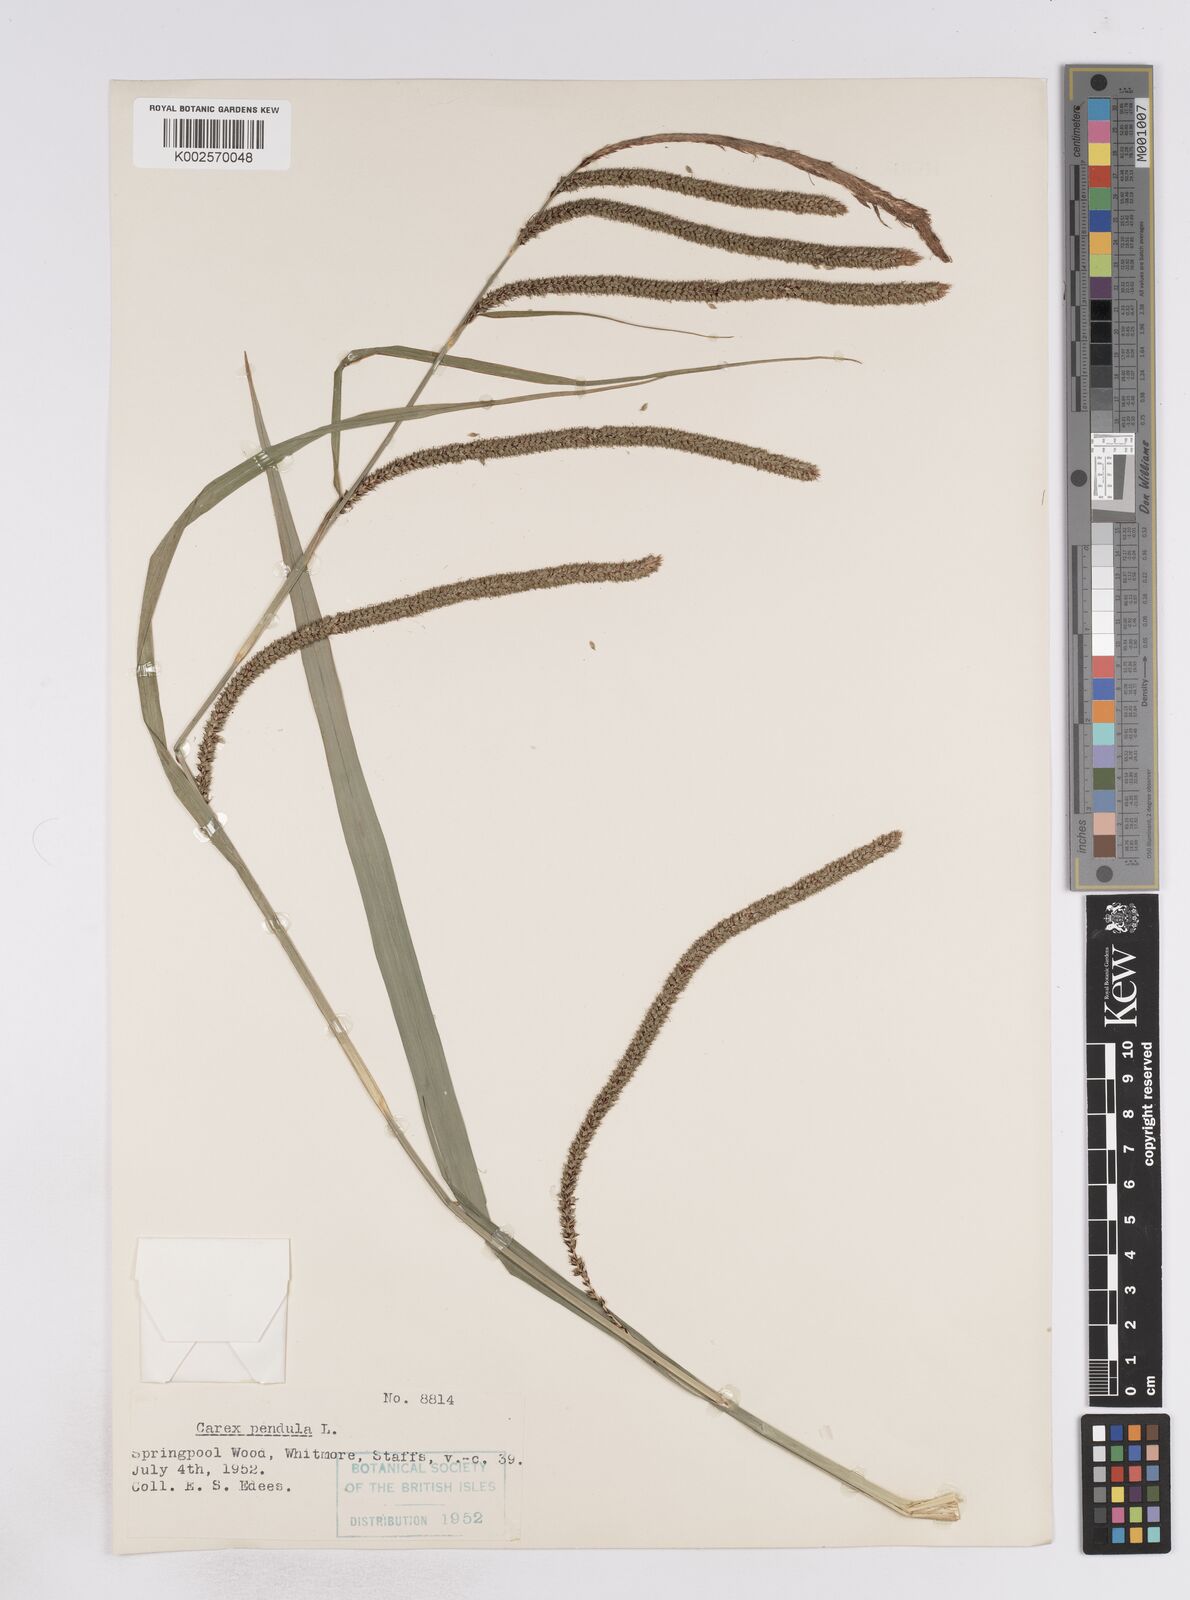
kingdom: Plantae
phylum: Tracheophyta
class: Liliopsida
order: Poales
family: Cyperaceae
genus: Carex
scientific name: Carex pendula
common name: Pendulous sedge
